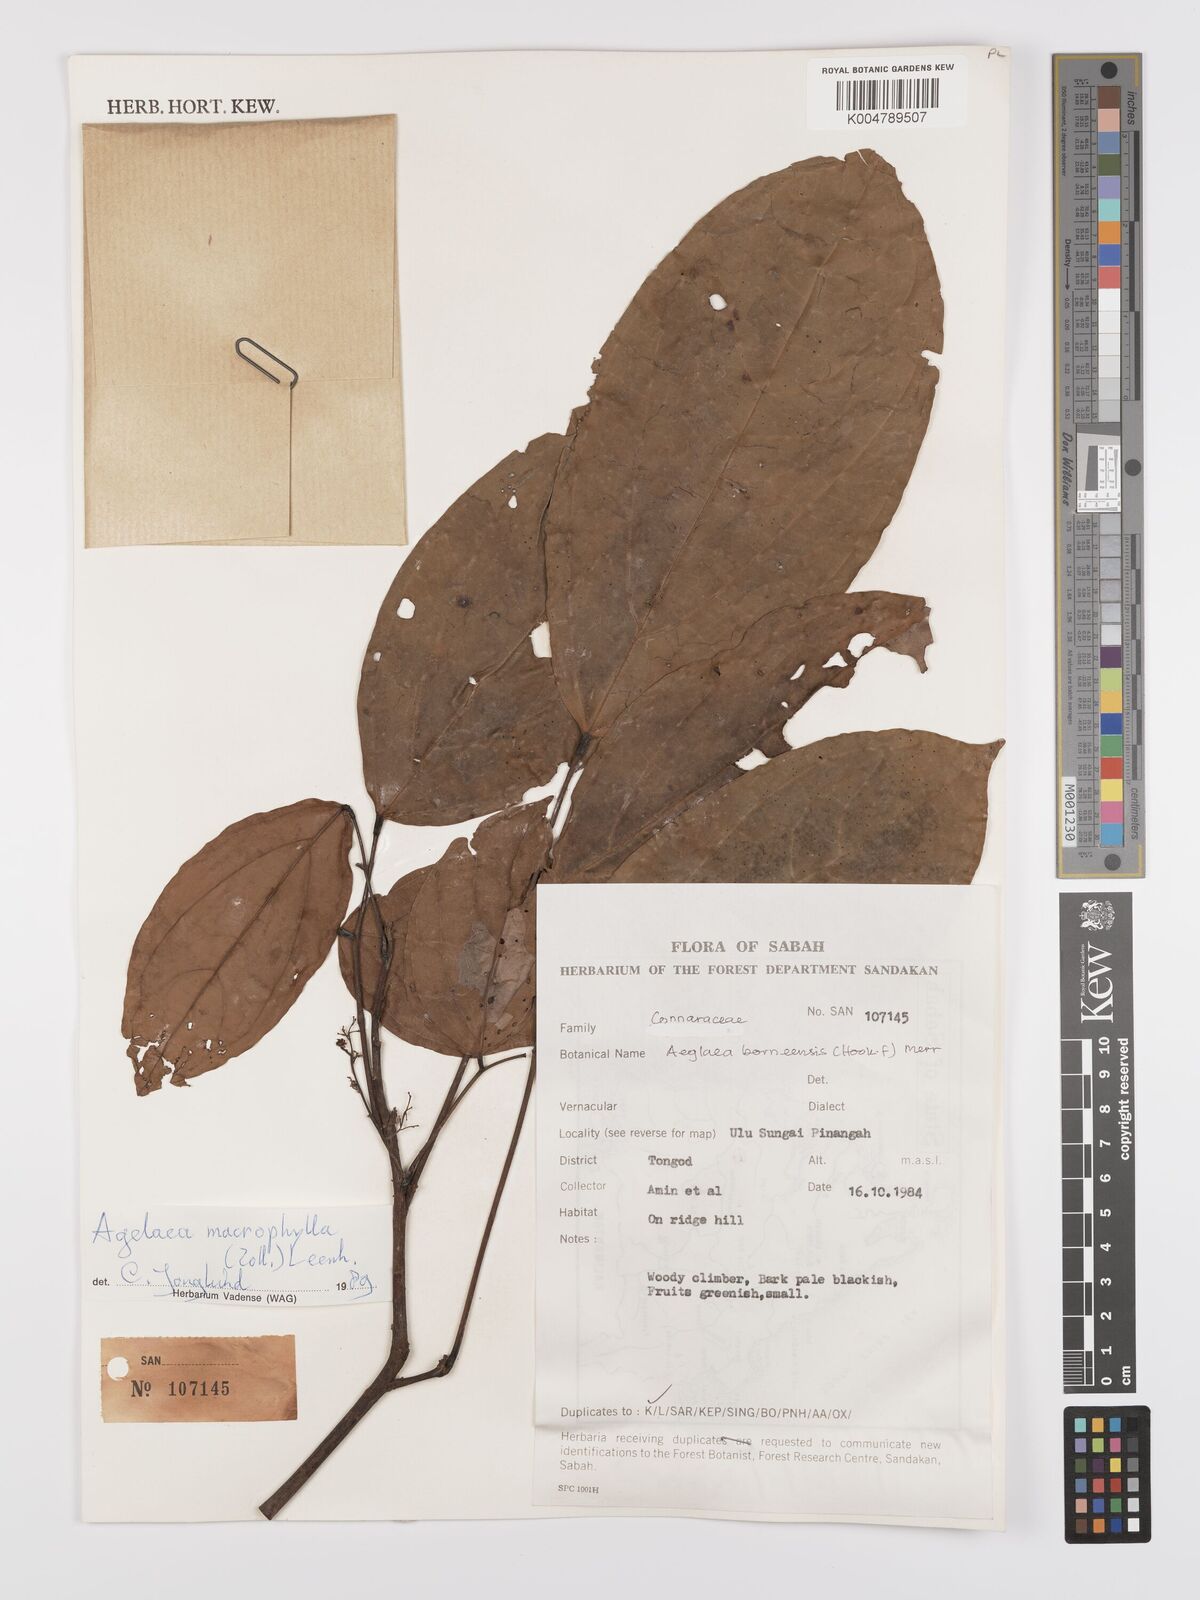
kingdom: Plantae
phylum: Tracheophyta
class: Magnoliopsida
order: Oxalidales
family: Connaraceae
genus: Agelaea
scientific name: Agelaea macrophylla
